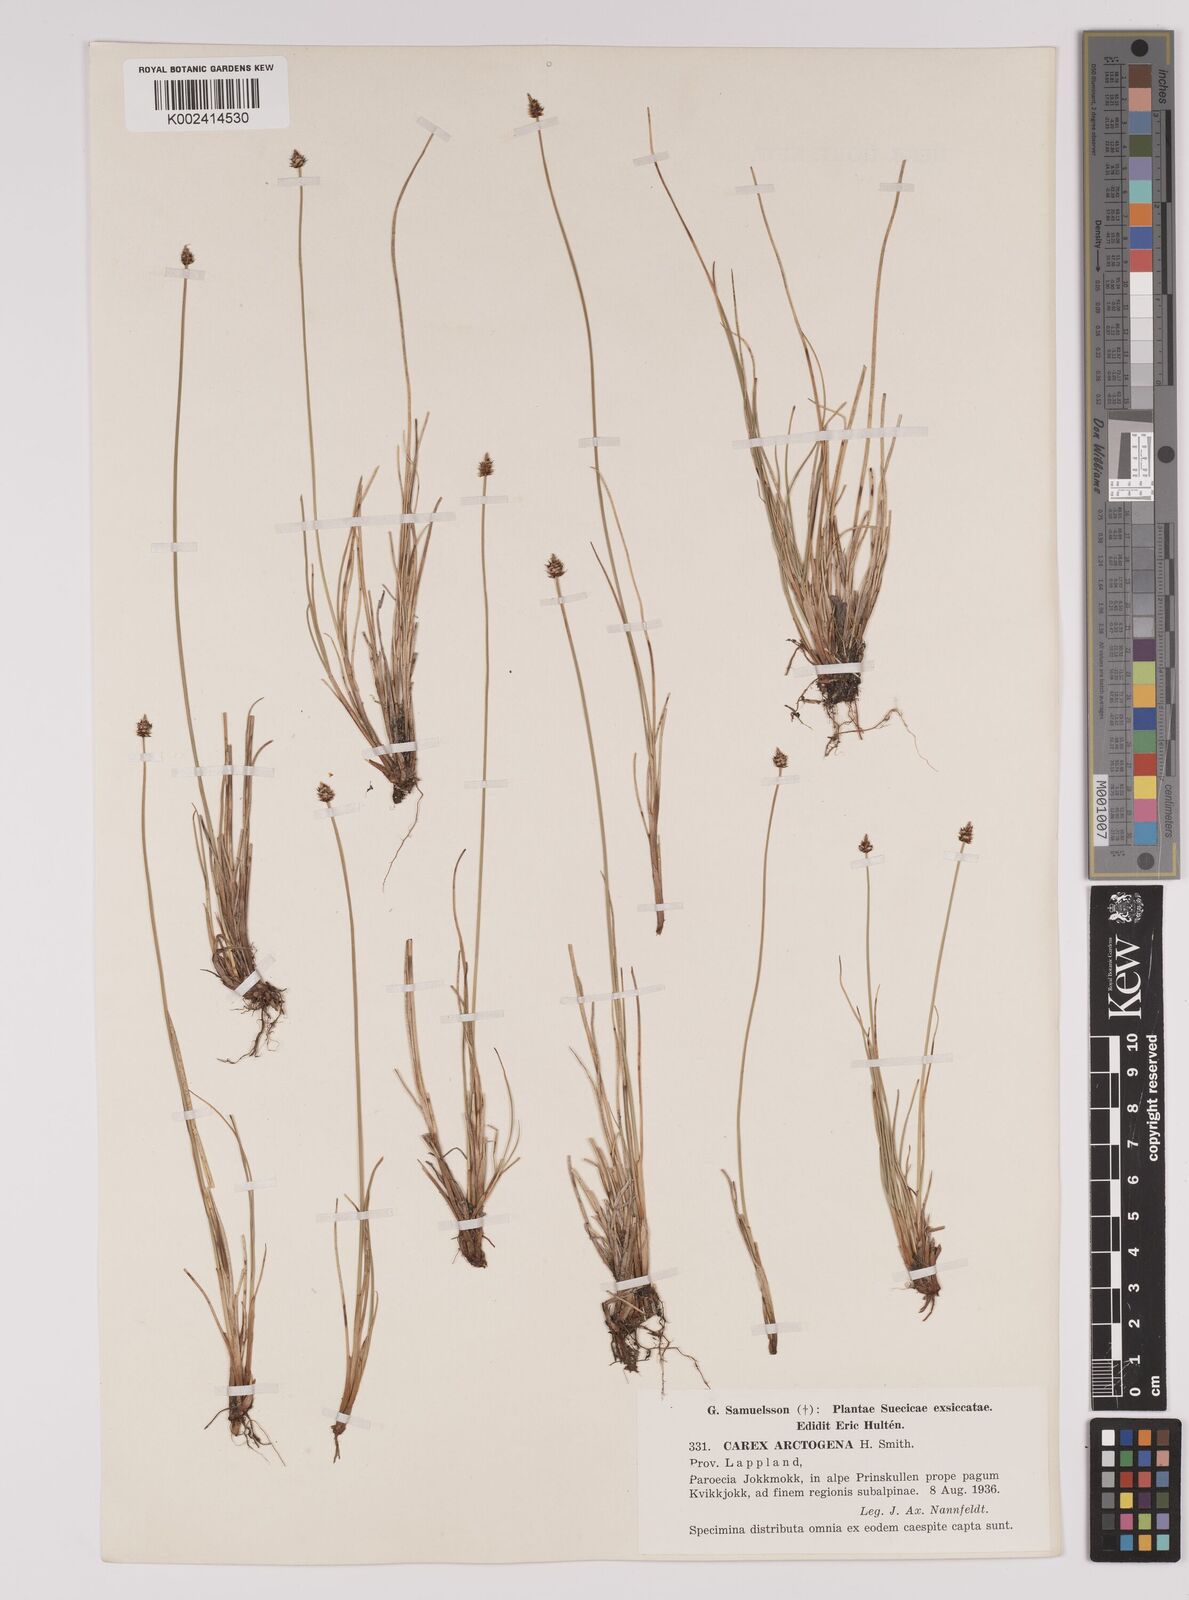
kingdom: Plantae
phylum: Tracheophyta
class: Liliopsida
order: Poales
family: Cyperaceae
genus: Carex
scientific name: Carex arctogena
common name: Black sedge
